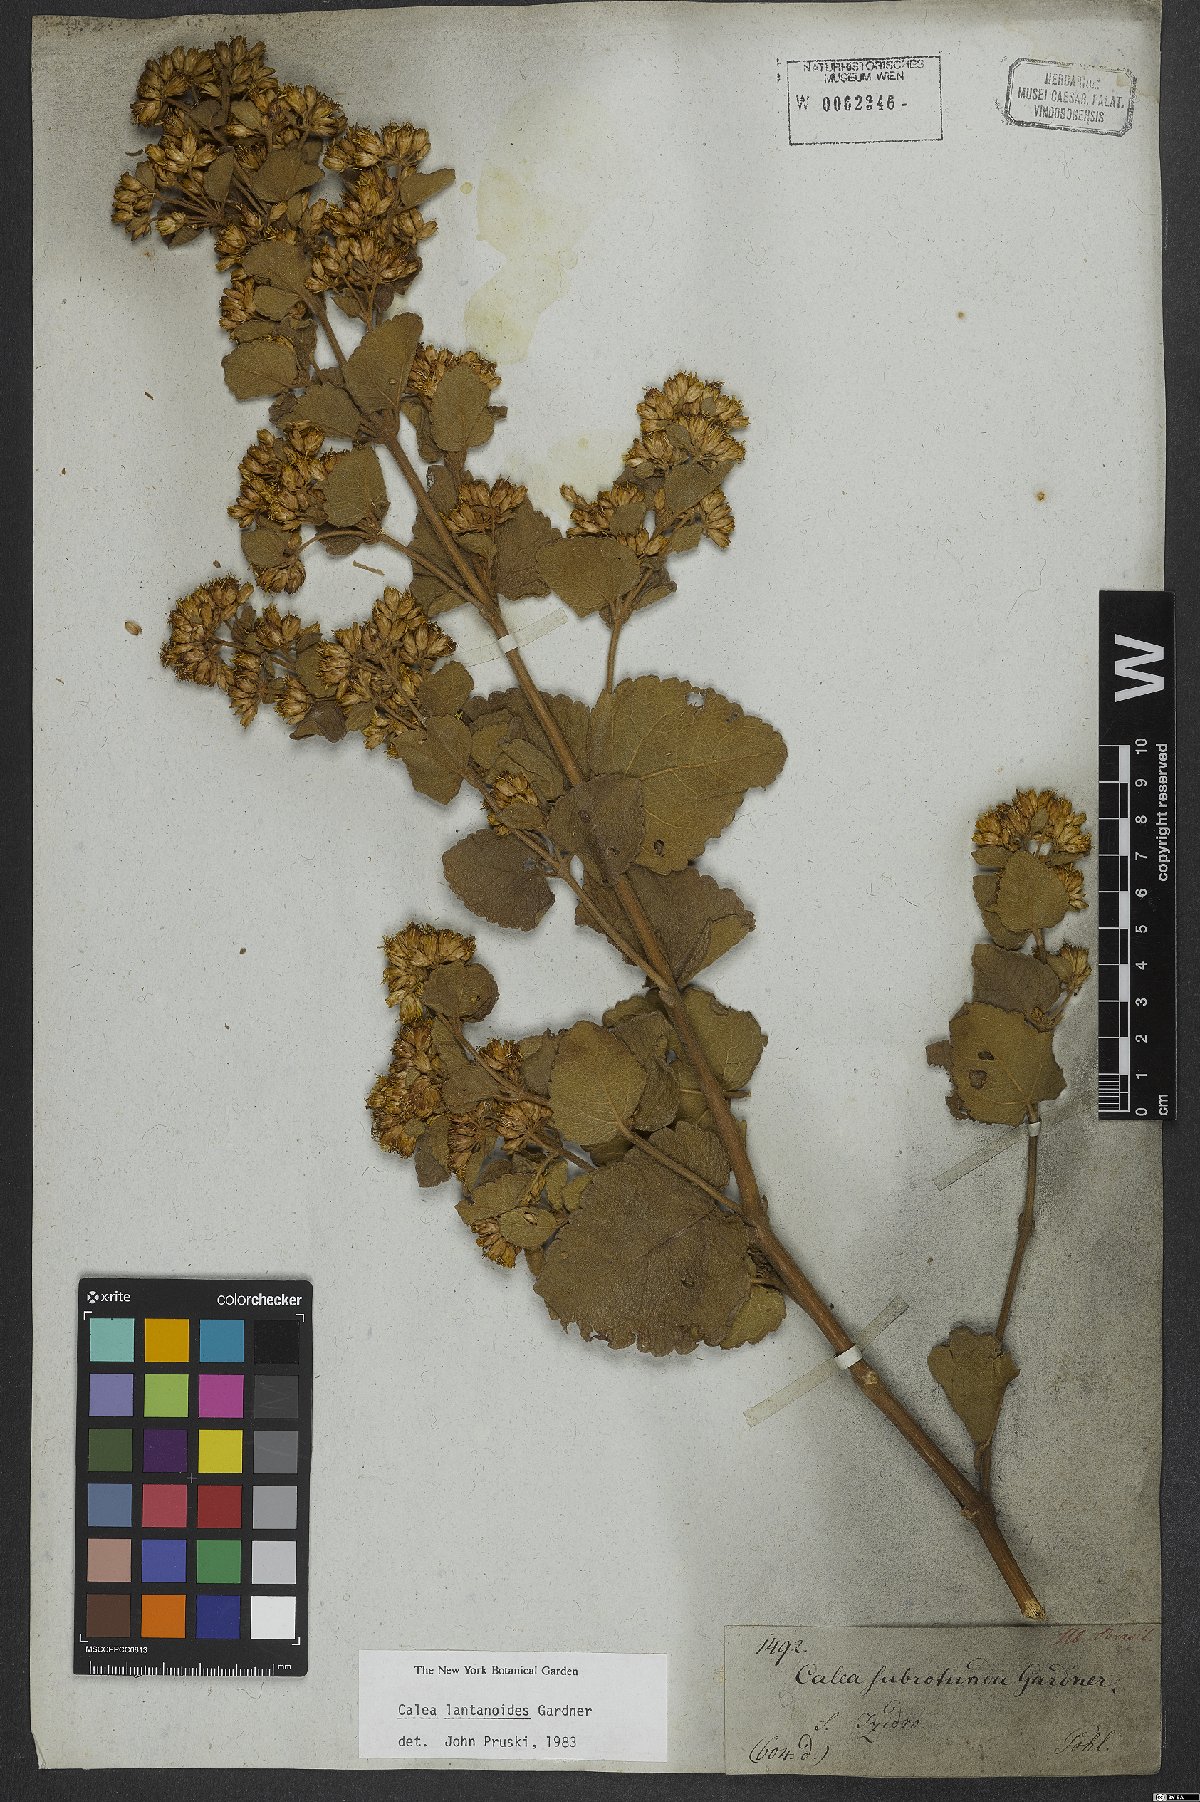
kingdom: Plantae
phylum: Tracheophyta
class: Magnoliopsida
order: Asterales
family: Asteraceae
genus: Calea
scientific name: Calea lantanoides
